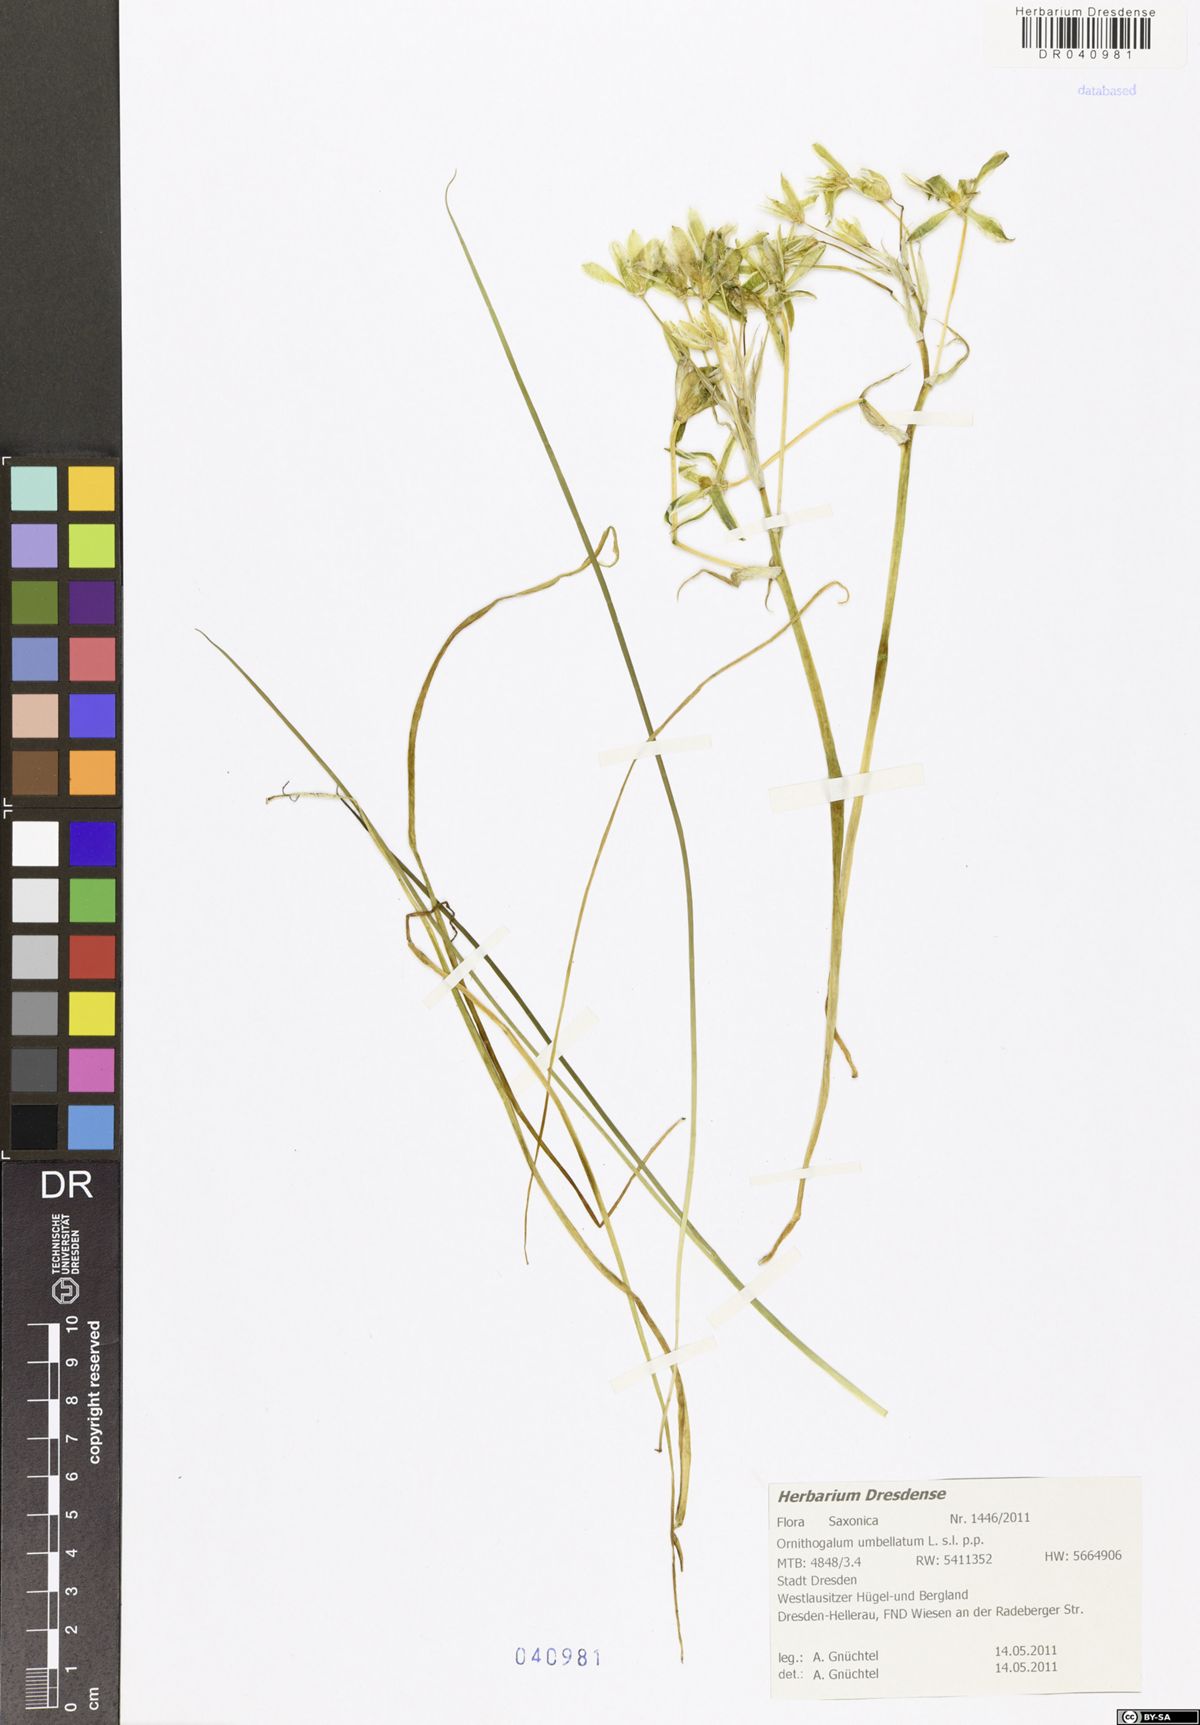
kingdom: Plantae
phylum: Tracheophyta
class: Liliopsida
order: Asparagales
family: Asparagaceae
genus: Ornithogalum
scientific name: Ornithogalum umbellatum
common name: Garden star-of-bethlehem
